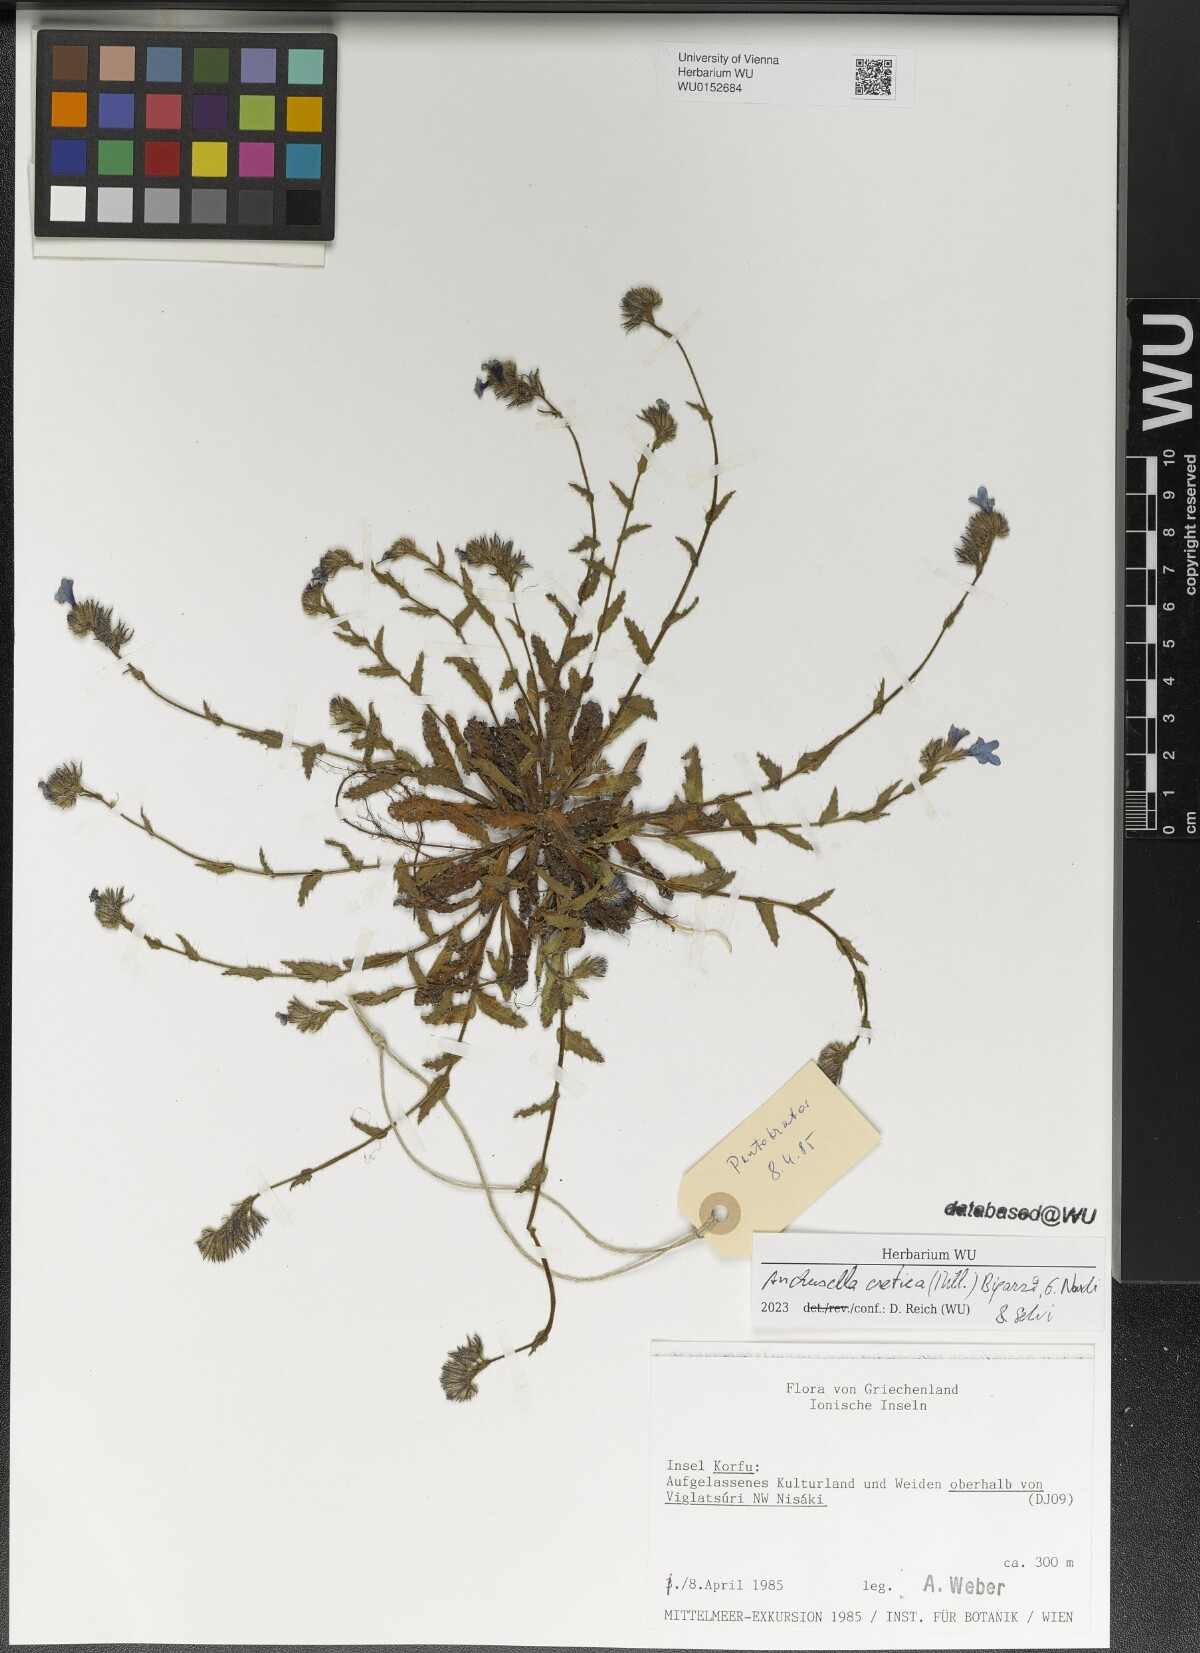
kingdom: Plantae
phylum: Tracheophyta
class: Magnoliopsida
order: Boraginales
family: Boraginaceae
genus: Anchusella
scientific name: Anchusella cretica
